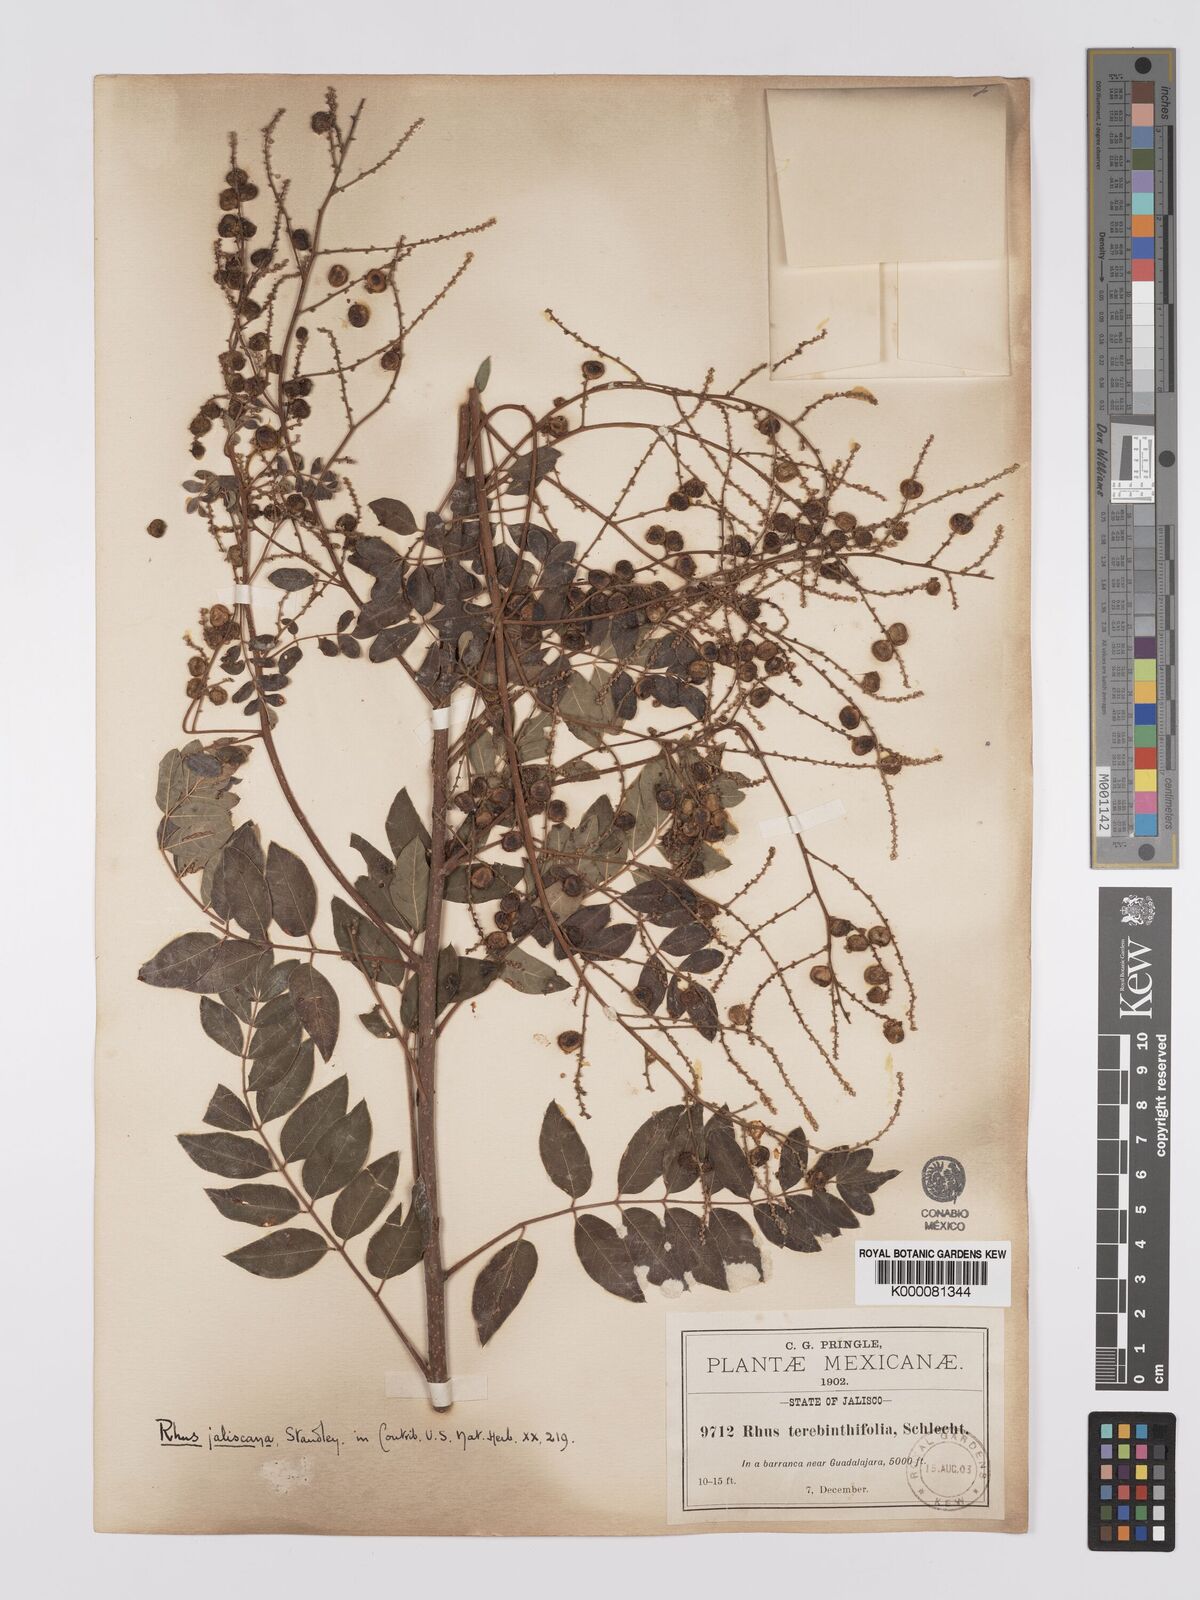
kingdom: Plantae
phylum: Tracheophyta
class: Magnoliopsida
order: Sapindales
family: Anacardiaceae
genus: Rhus
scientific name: Rhus jaliscana
